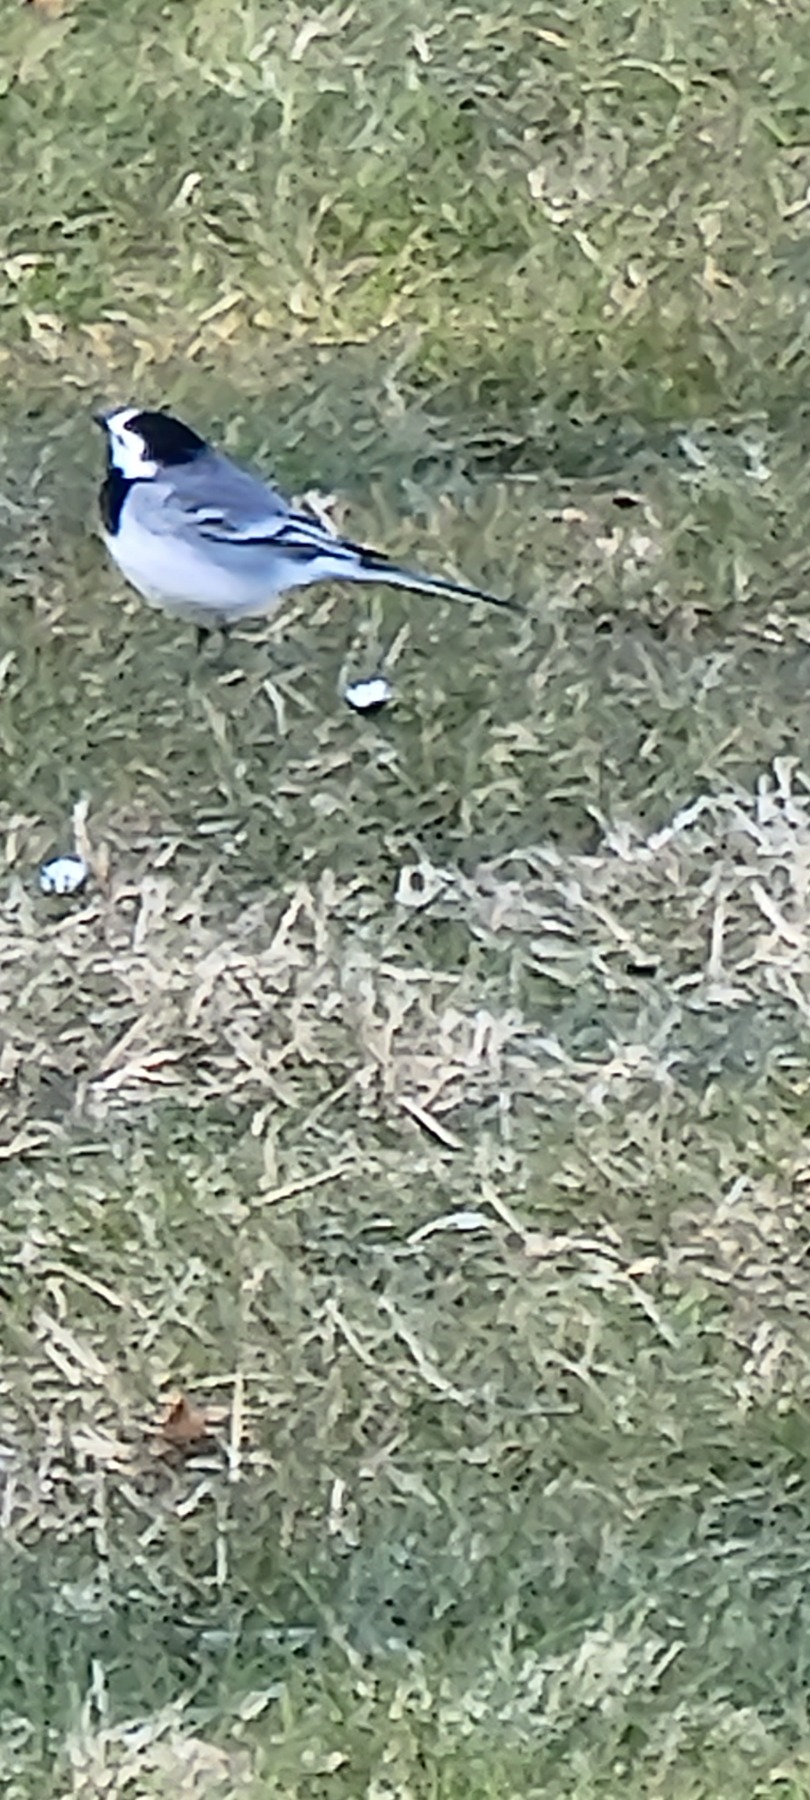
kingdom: Animalia
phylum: Chordata
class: Aves
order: Passeriformes
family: Motacillidae
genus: Motacilla
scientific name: Motacilla alba
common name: Hvid vipstjert
